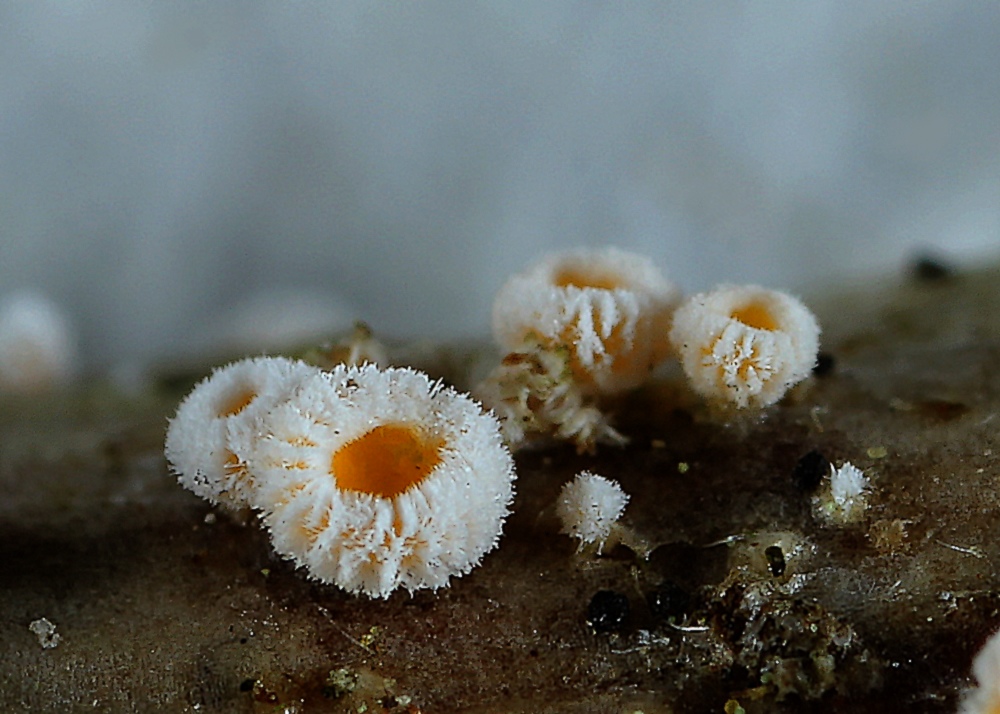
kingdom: Fungi
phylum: Ascomycota
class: Leotiomycetes
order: Helotiales
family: Lachnaceae
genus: Capitotricha
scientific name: Capitotricha bicolor
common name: prægtig frynseskive
